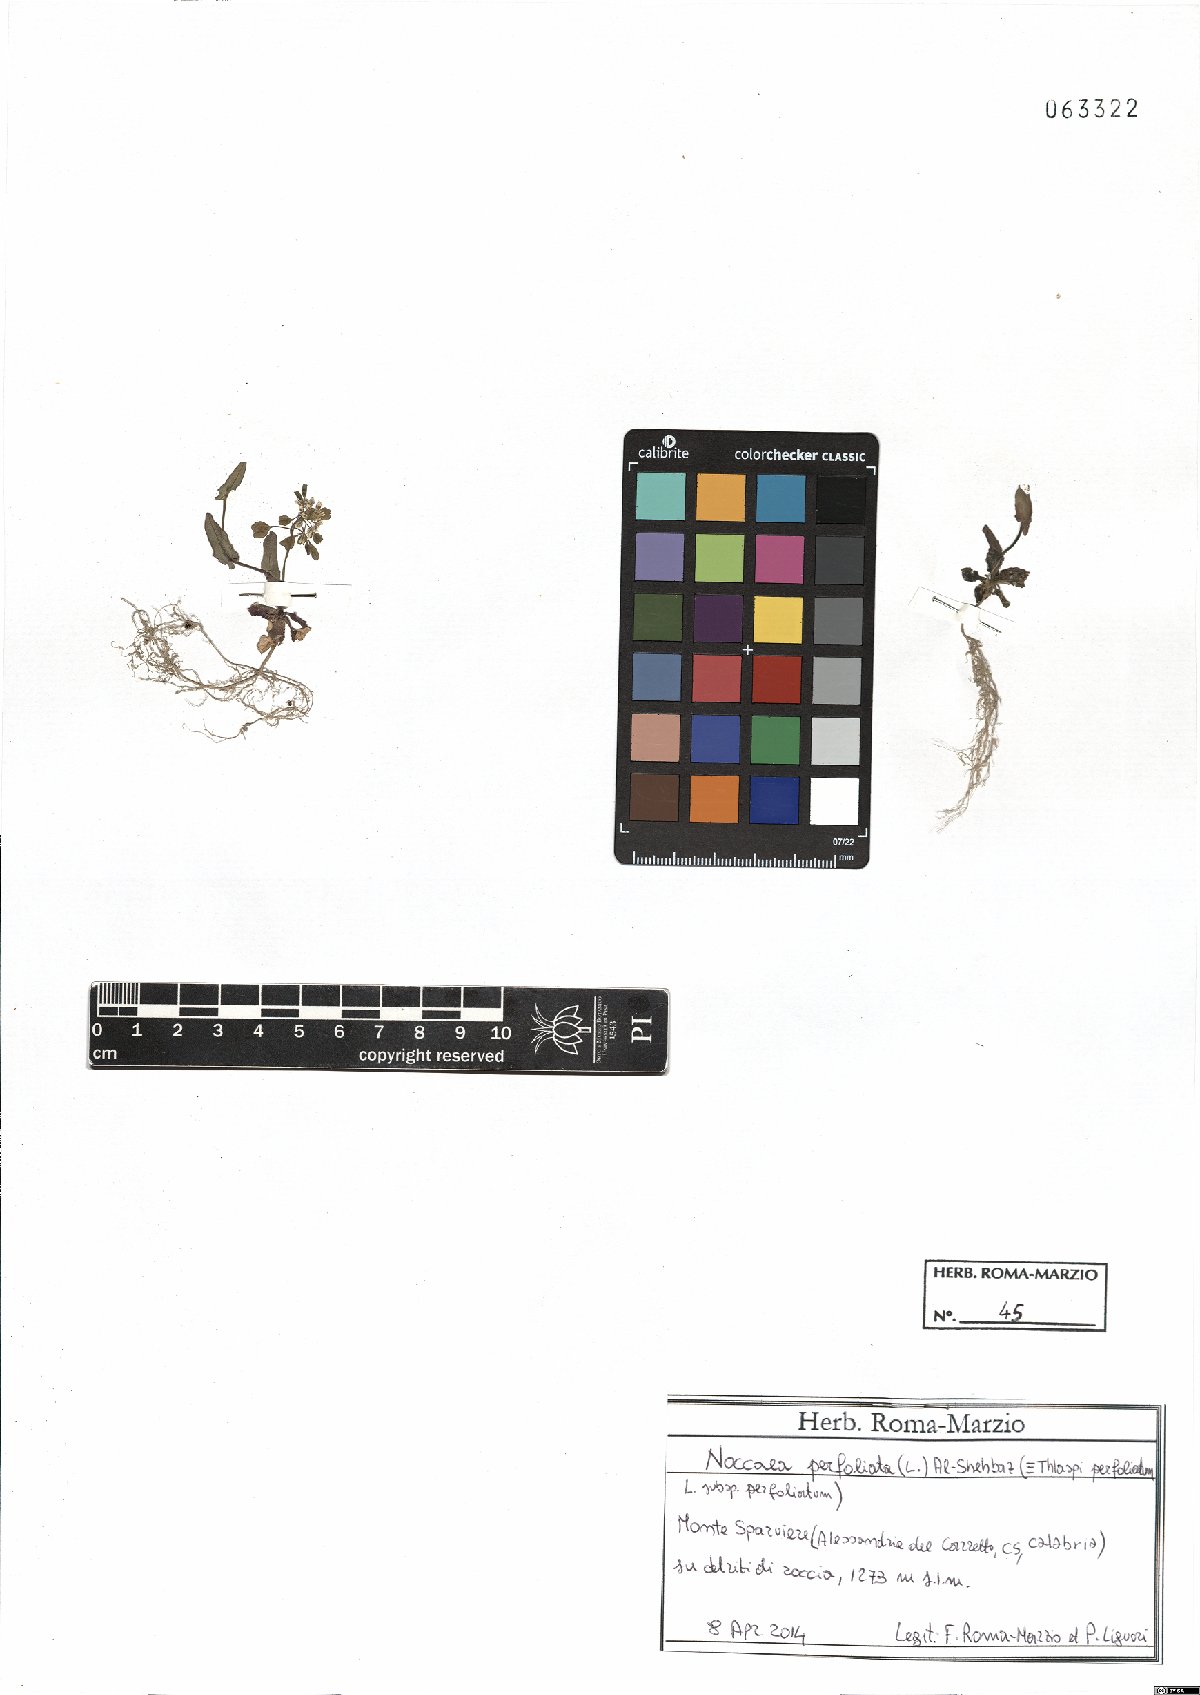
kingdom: Plantae
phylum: Tracheophyta
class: Magnoliopsida
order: Brassicales
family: Brassicaceae
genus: Noccaea
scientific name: Noccaea perfoliata
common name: Perfoliate pennycress
